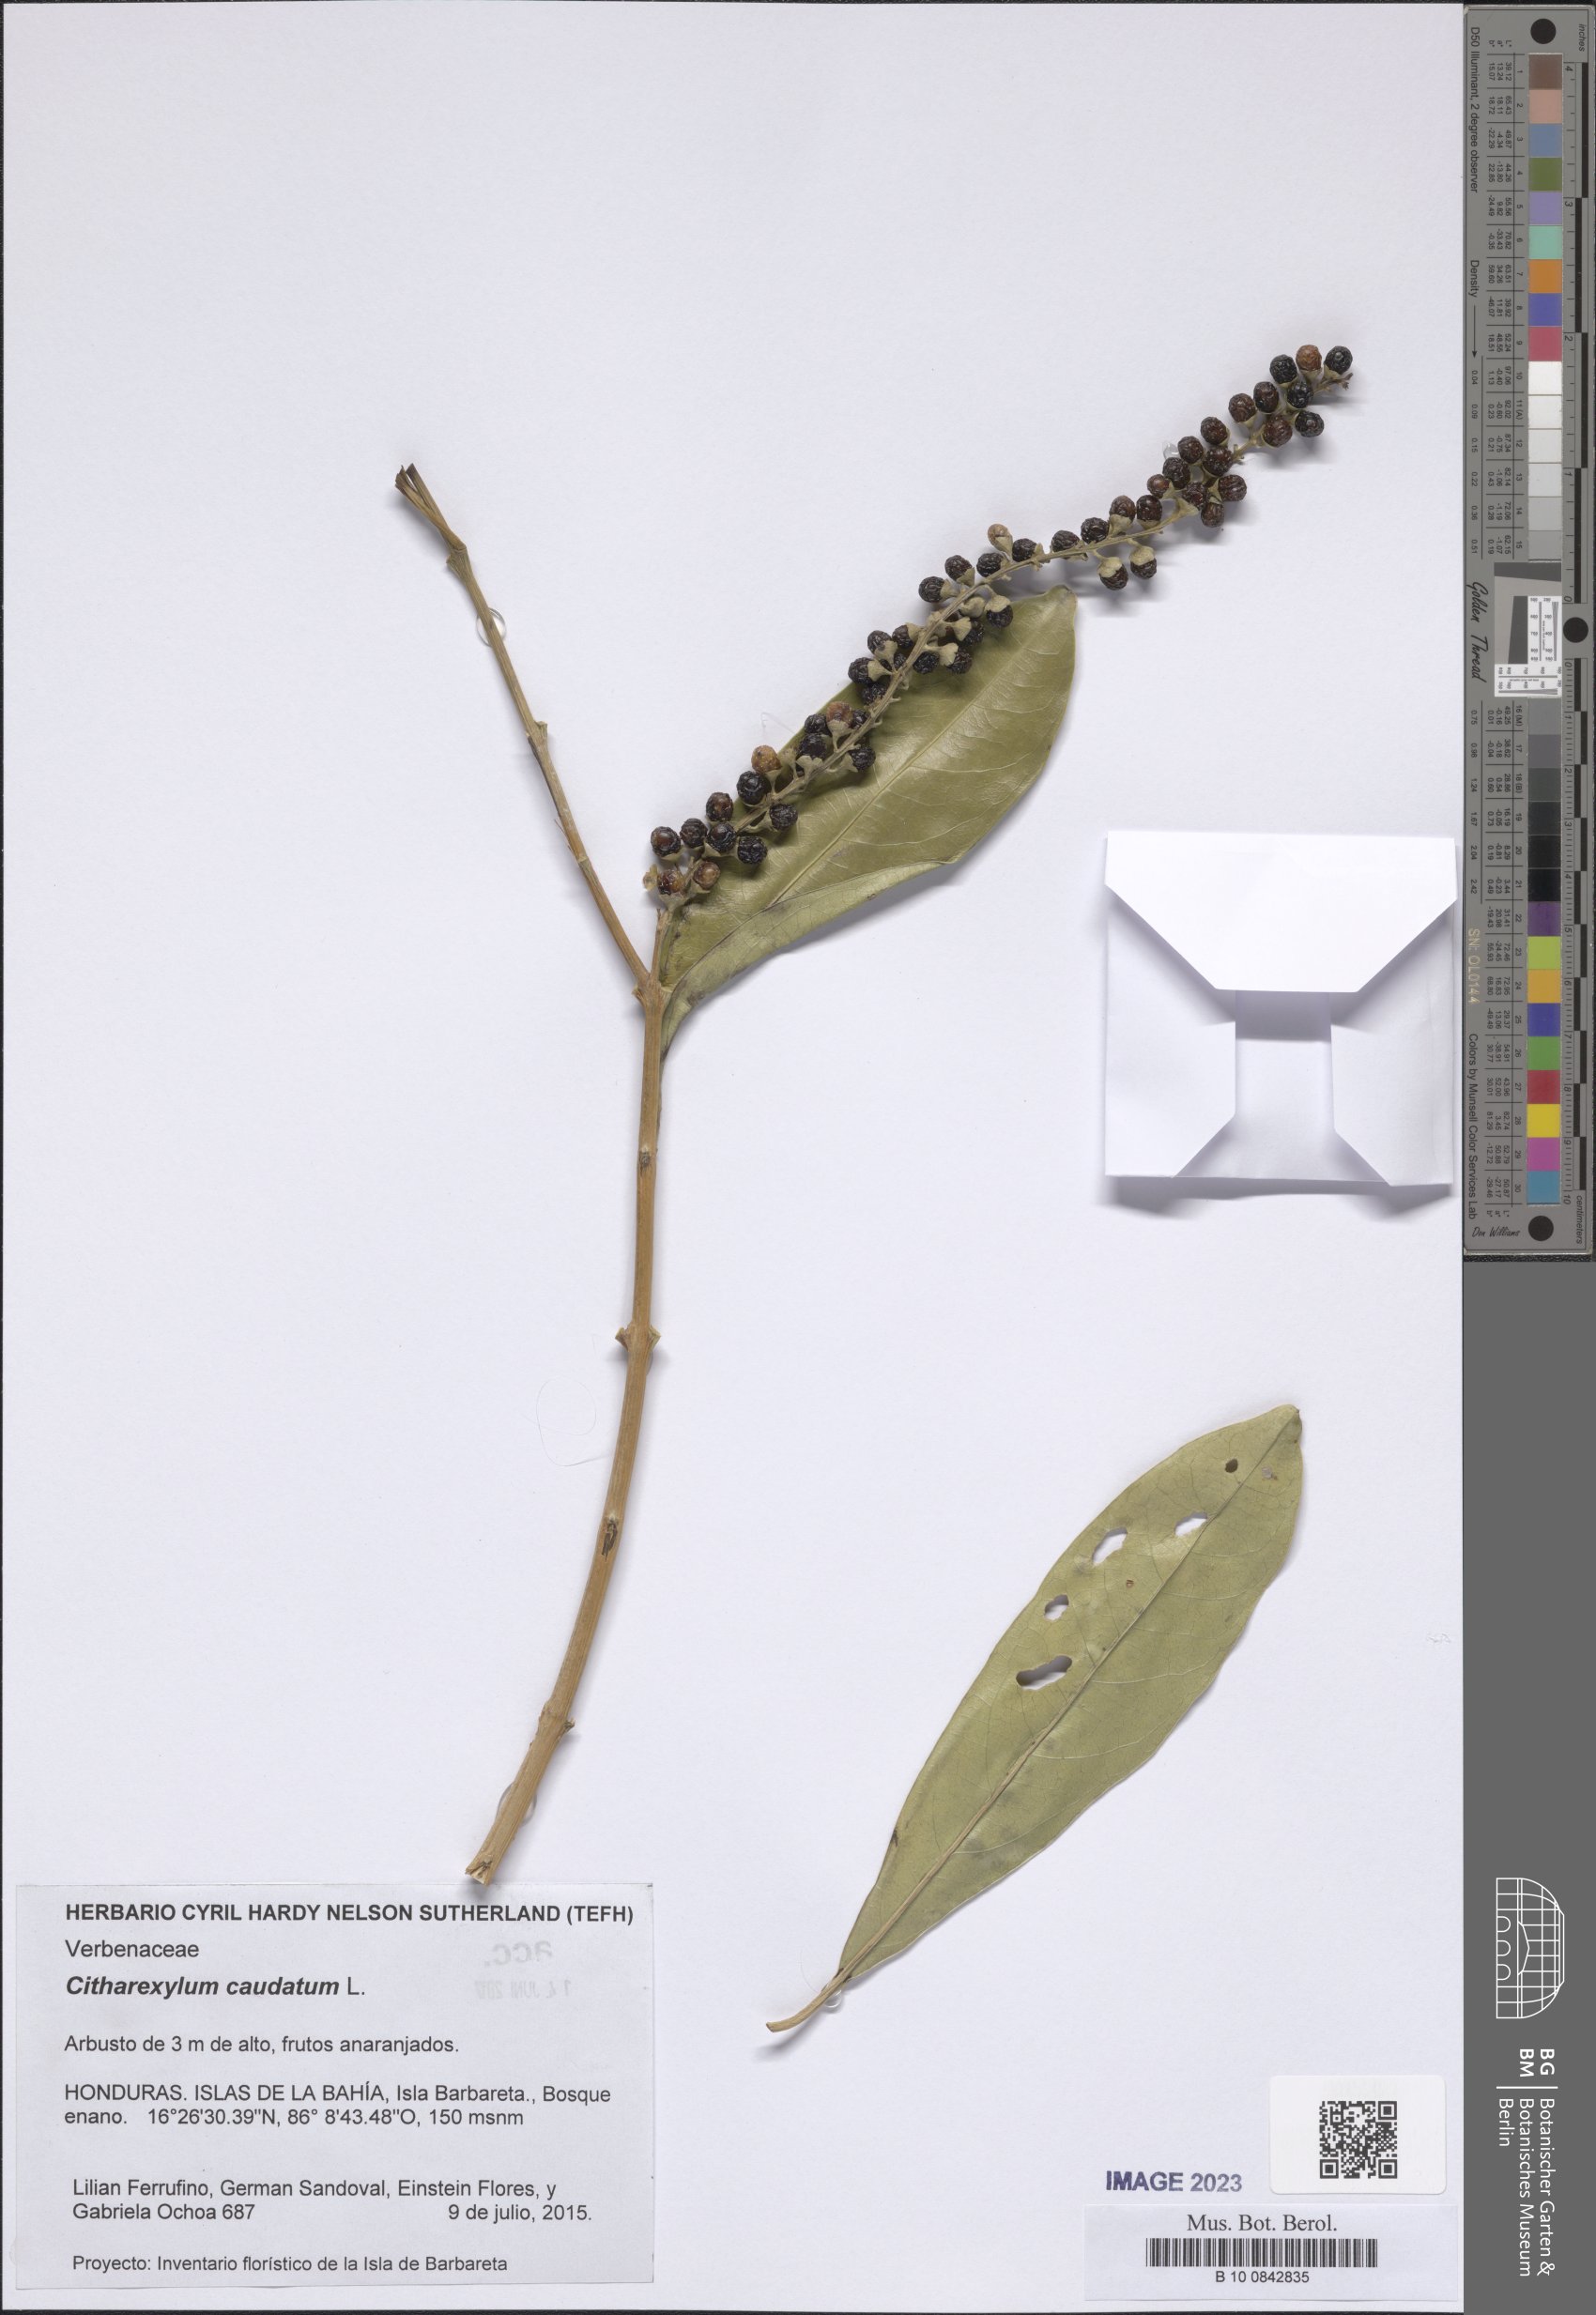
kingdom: Plantae
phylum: Tracheophyta
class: Magnoliopsida
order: Lamiales
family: Verbenaceae
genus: Citharexylum
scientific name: Citharexylum caudatum
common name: Fiddlewood
